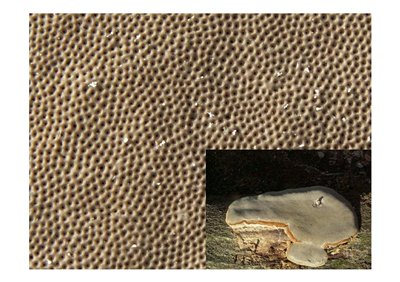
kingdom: Fungi
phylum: Basidiomycota
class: Agaricomycetes
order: Polyporales
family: Polyporaceae
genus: Fomes
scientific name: Fomes fomentarius
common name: tøndersvamp
